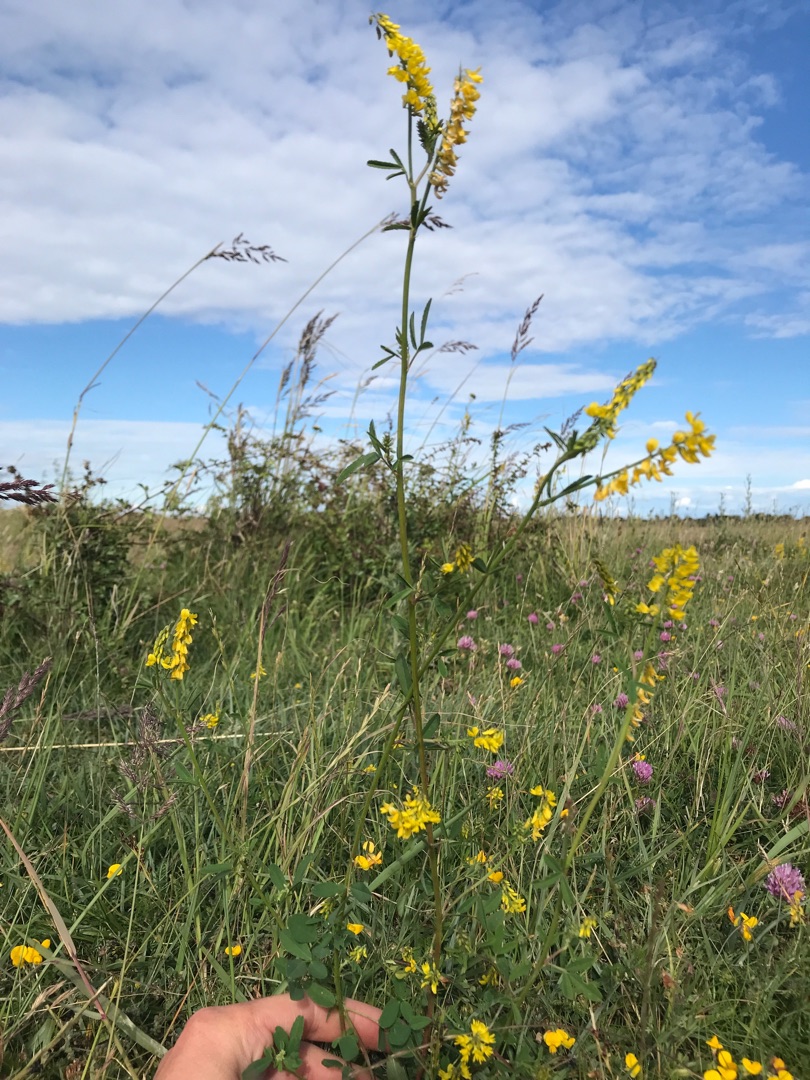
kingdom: Plantae
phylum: Tracheophyta
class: Magnoliopsida
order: Fabales
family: Fabaceae
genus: Melilotus
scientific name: Melilotus altissimus
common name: Høj stenkløver
